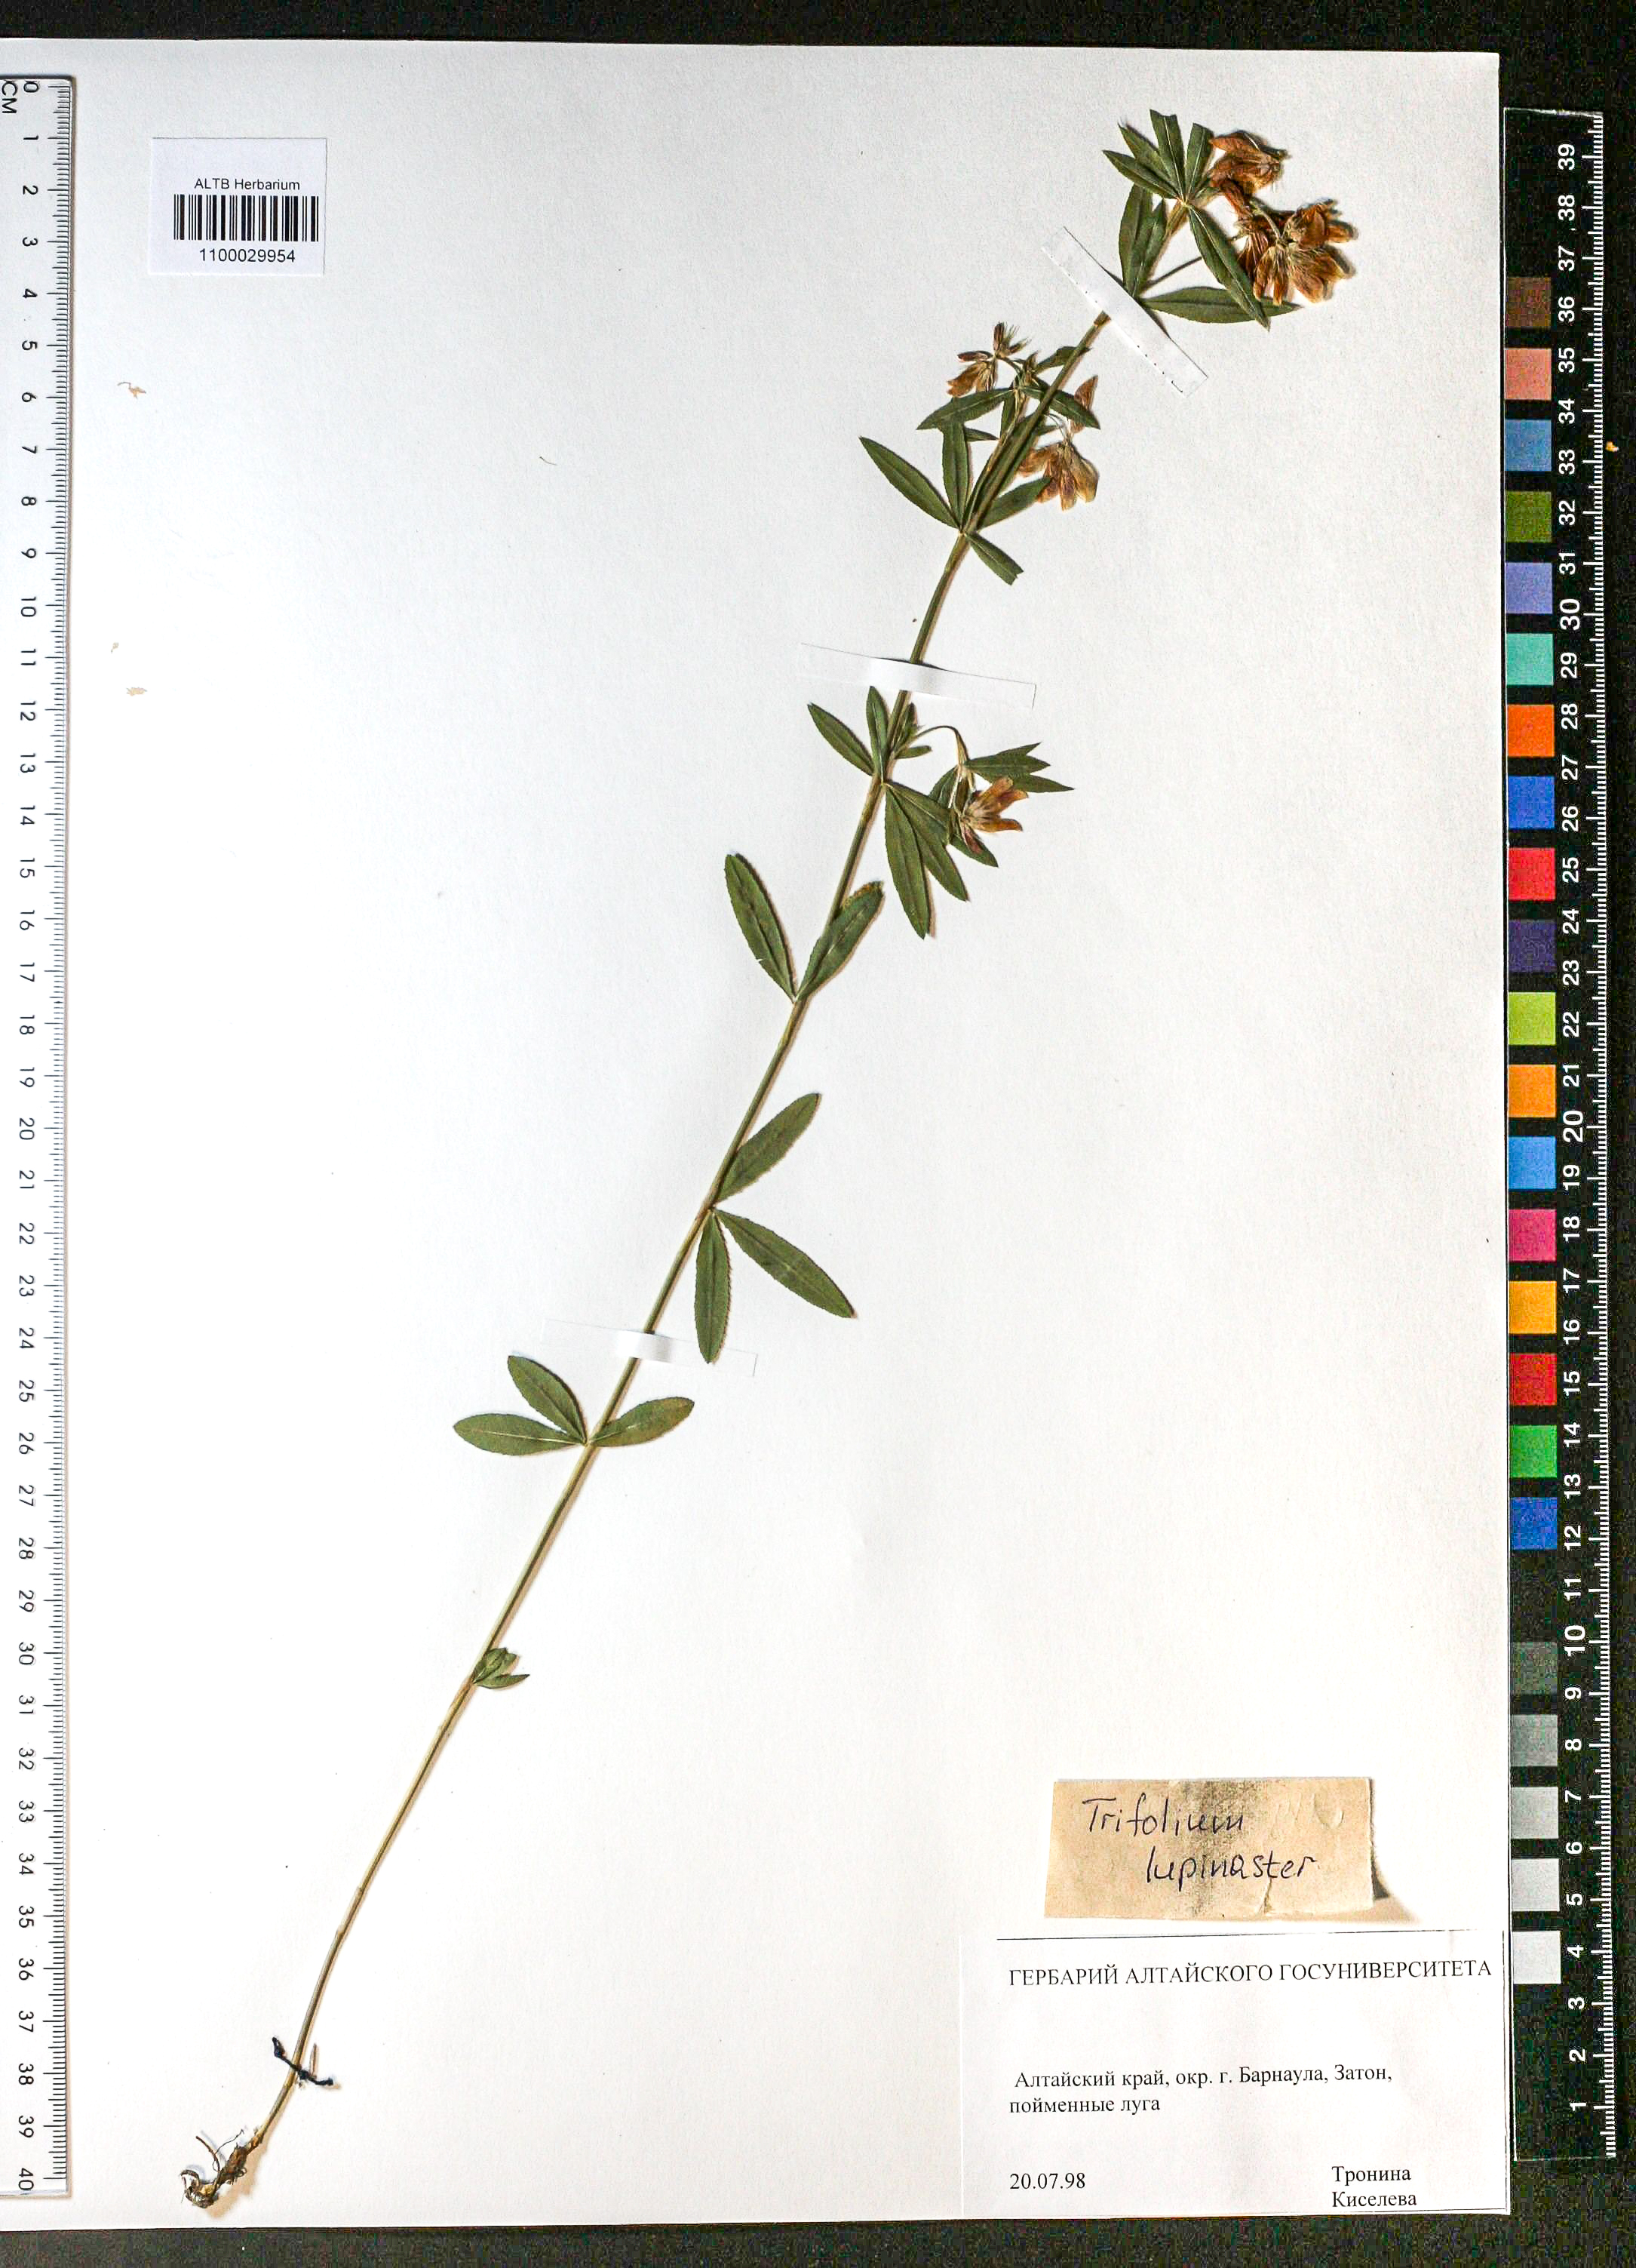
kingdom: Plantae
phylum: Tracheophyta
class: Magnoliopsida
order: Fabales
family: Fabaceae
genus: Trifolium
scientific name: Trifolium lupinaster
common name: Lupine clover
